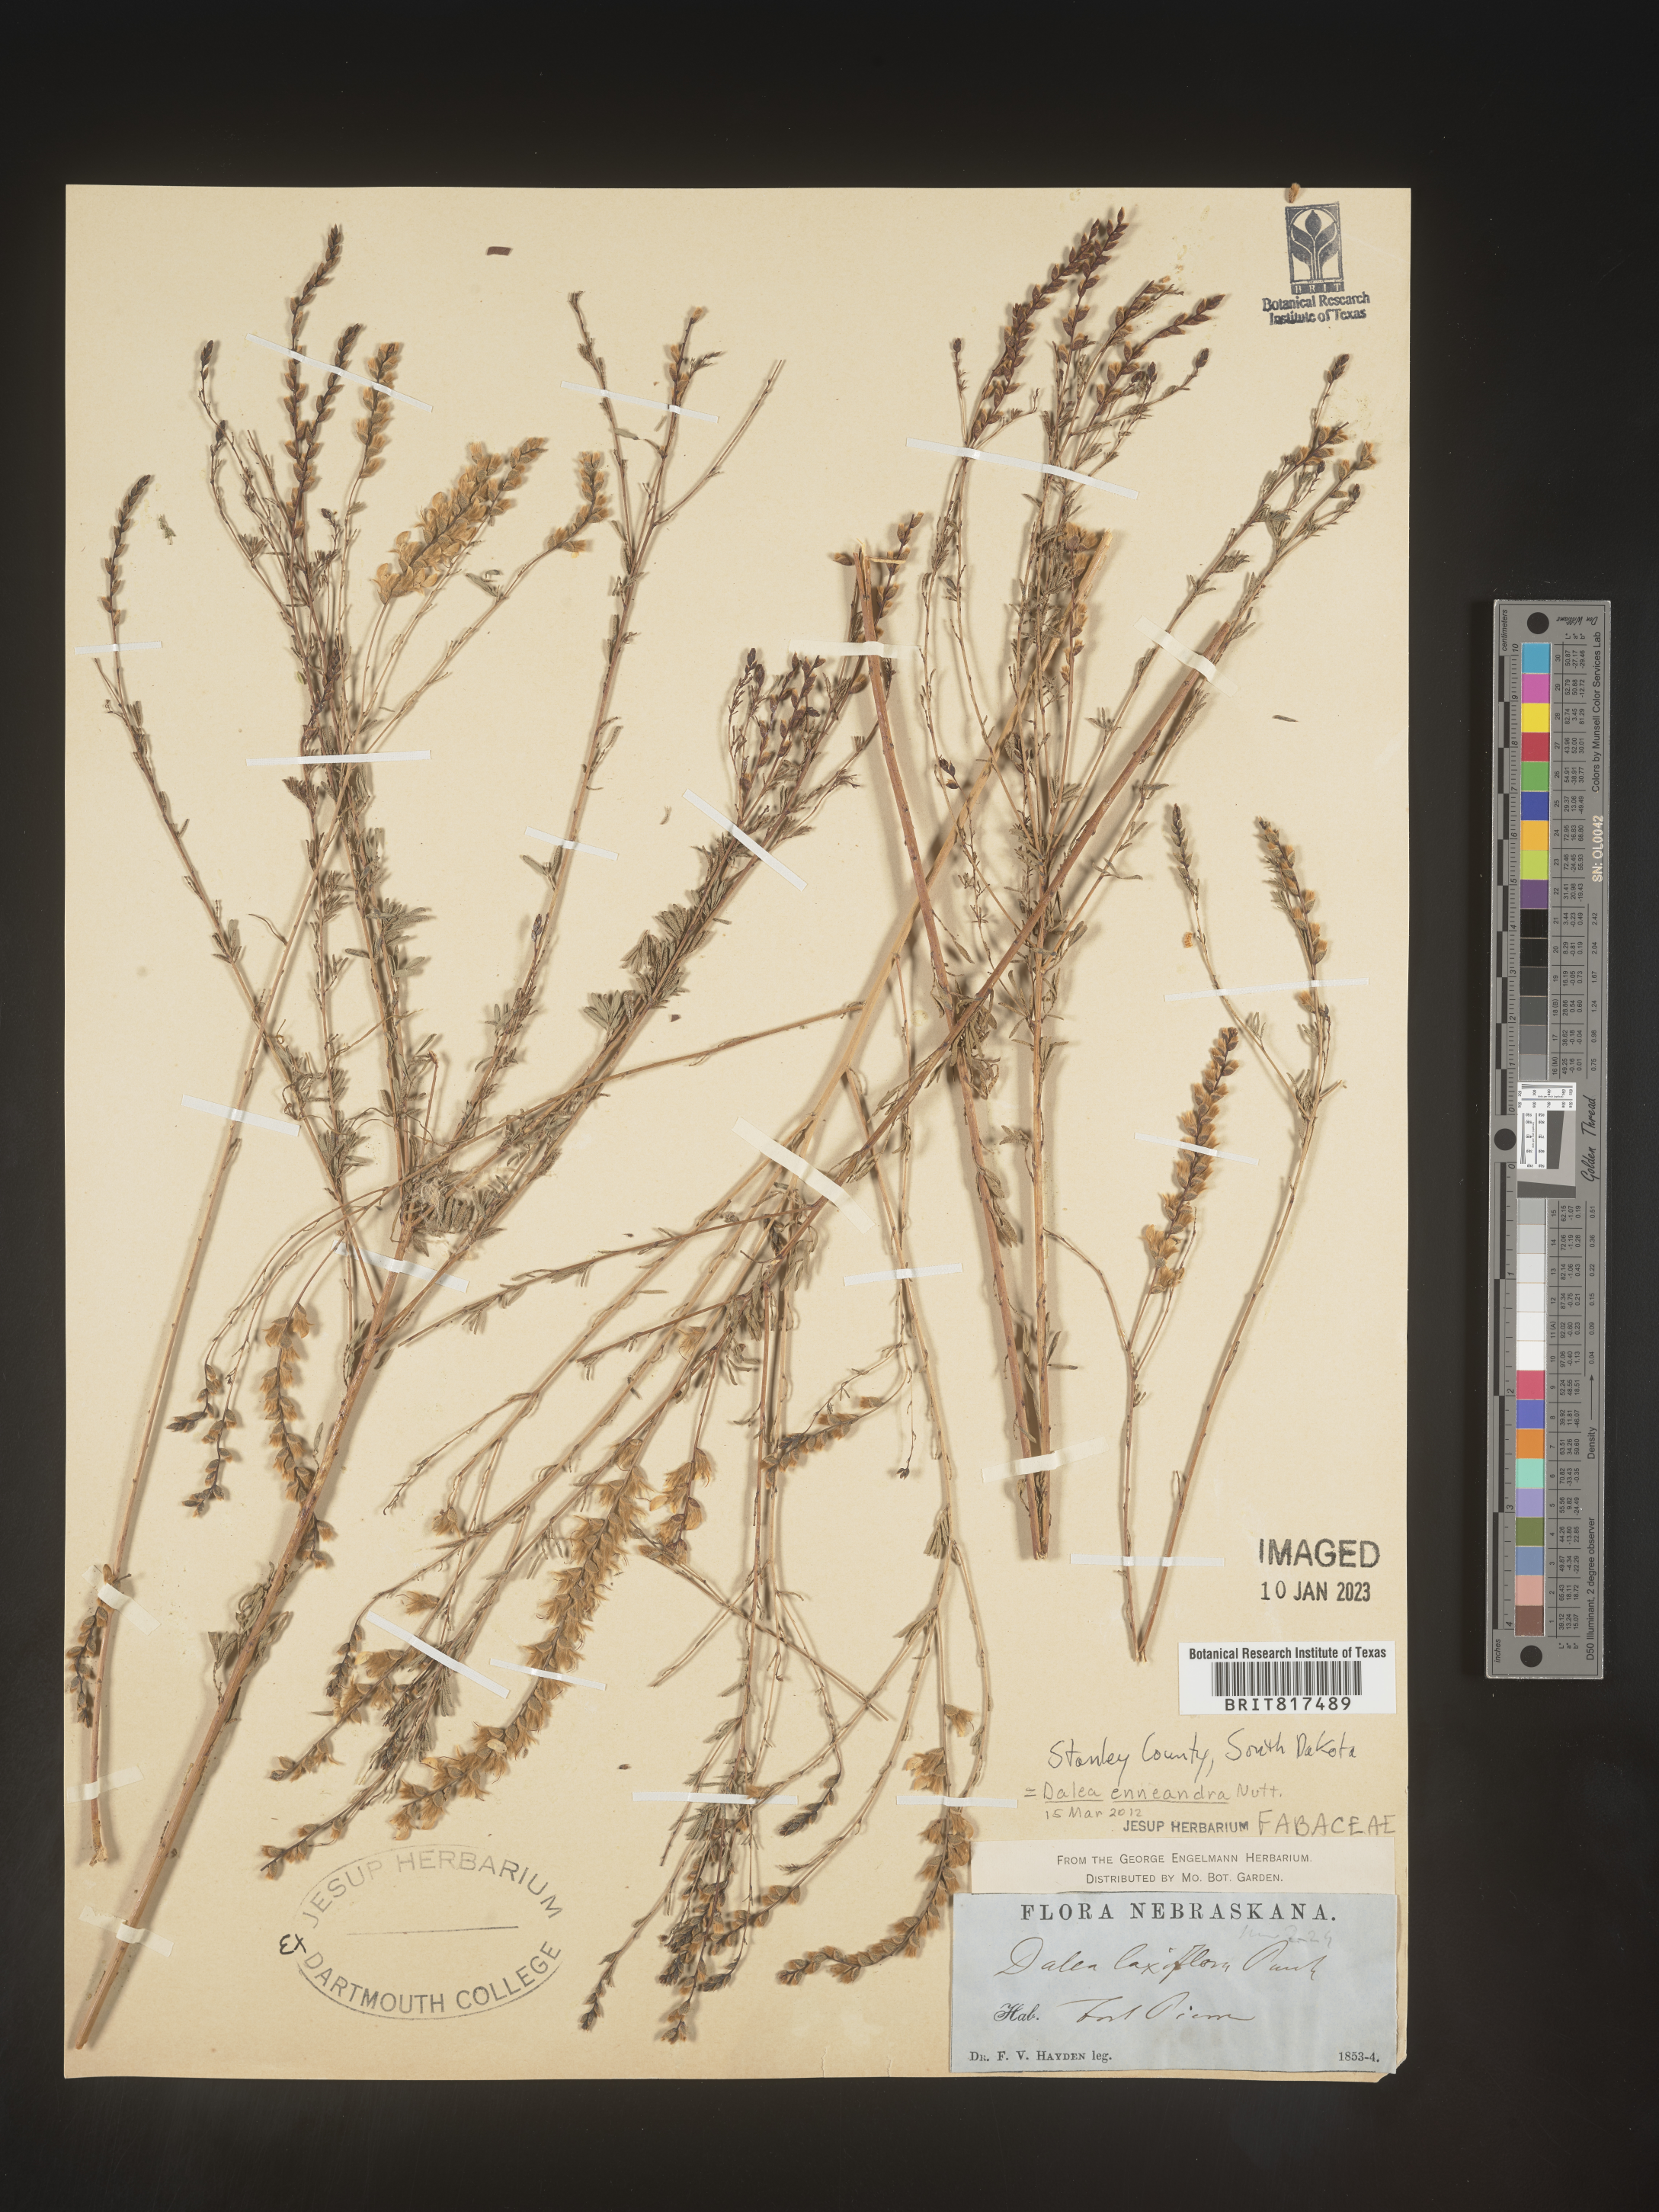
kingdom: Plantae
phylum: Tracheophyta
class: Magnoliopsida
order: Fabales
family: Fabaceae
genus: Dalea
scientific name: Dalea
